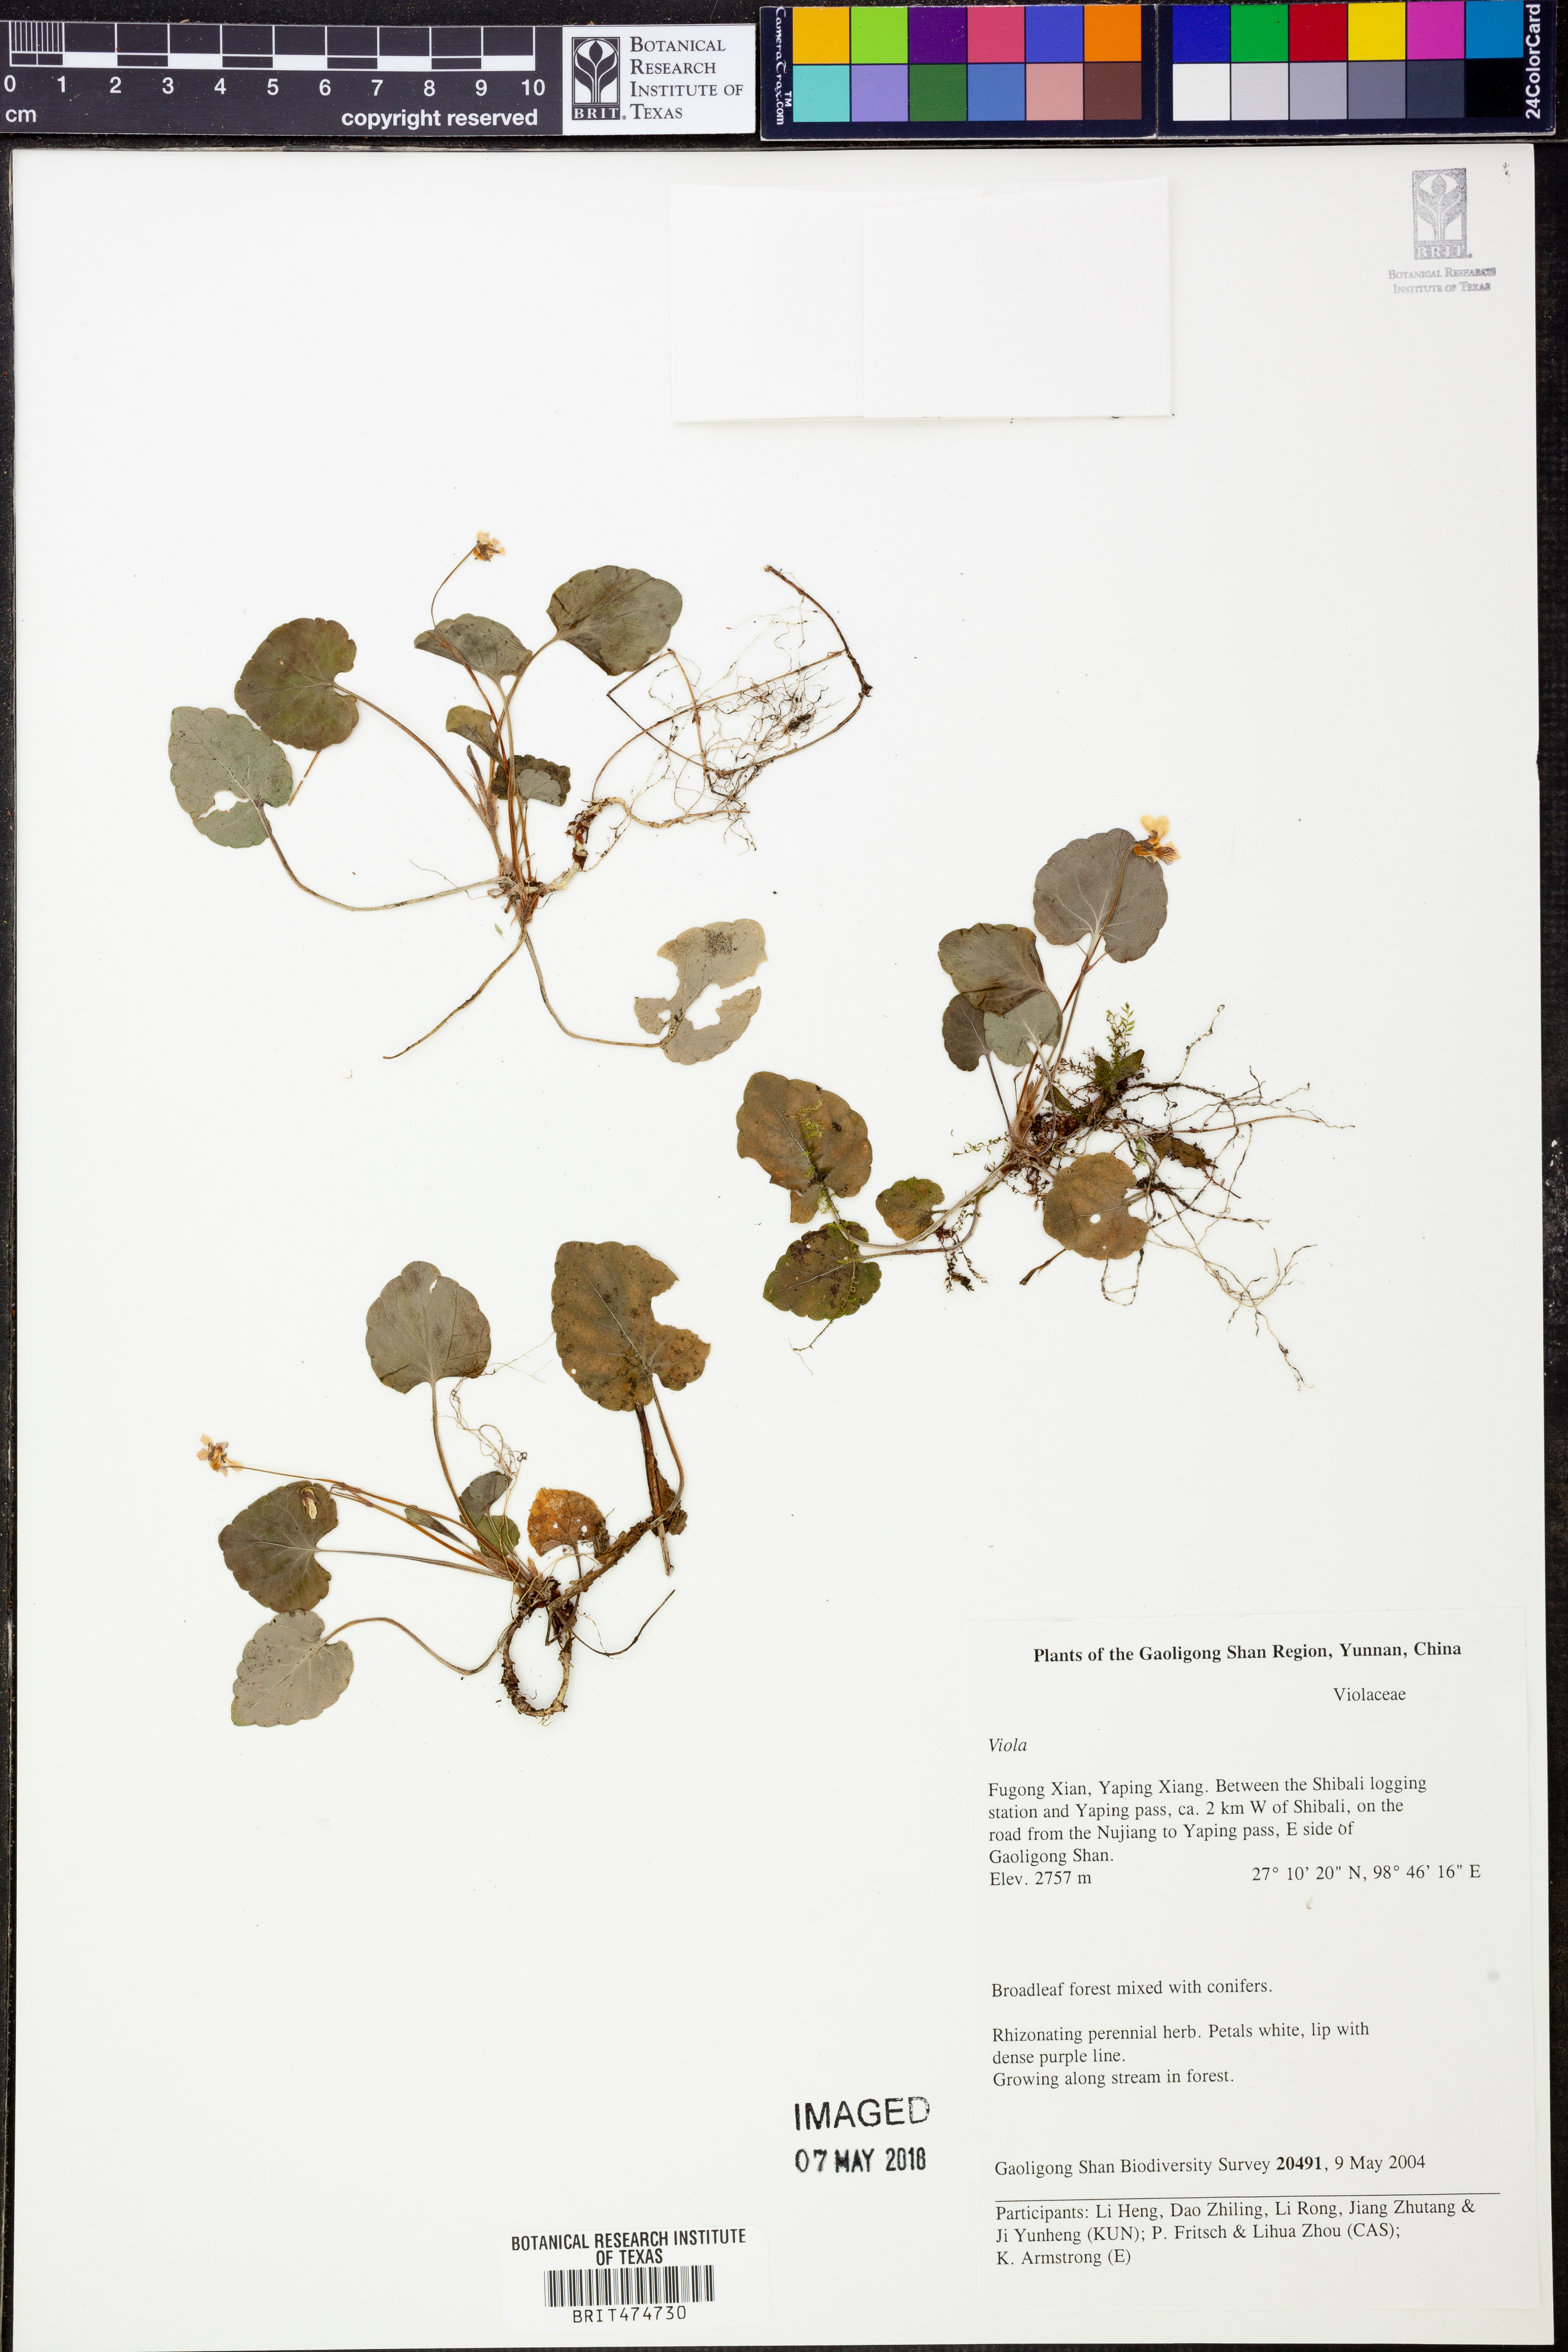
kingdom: Plantae
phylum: Tracheophyta
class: Magnoliopsida
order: Malpighiales
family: Violaceae
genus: Viola
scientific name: Viola
